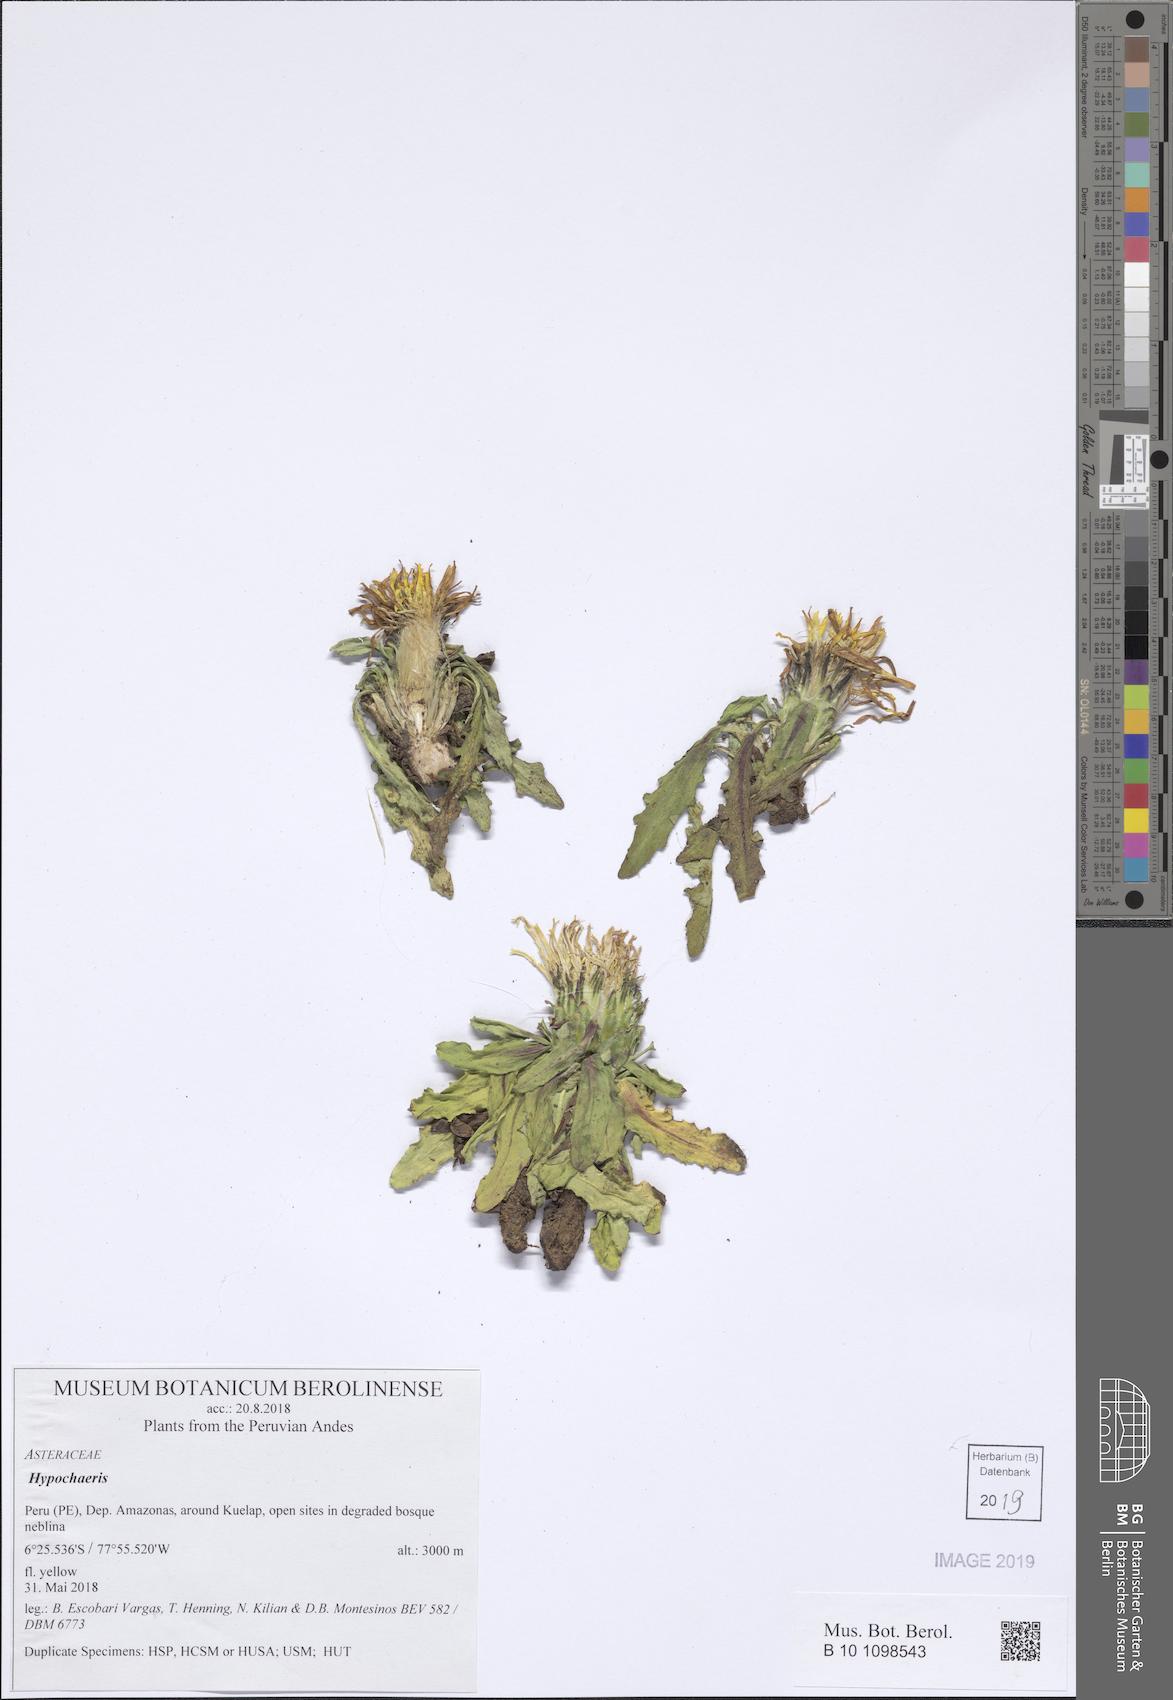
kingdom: Plantae
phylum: Tracheophyta
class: Magnoliopsida
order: Asterales
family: Asteraceae
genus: Hypochaeris
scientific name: Hypochaeris
